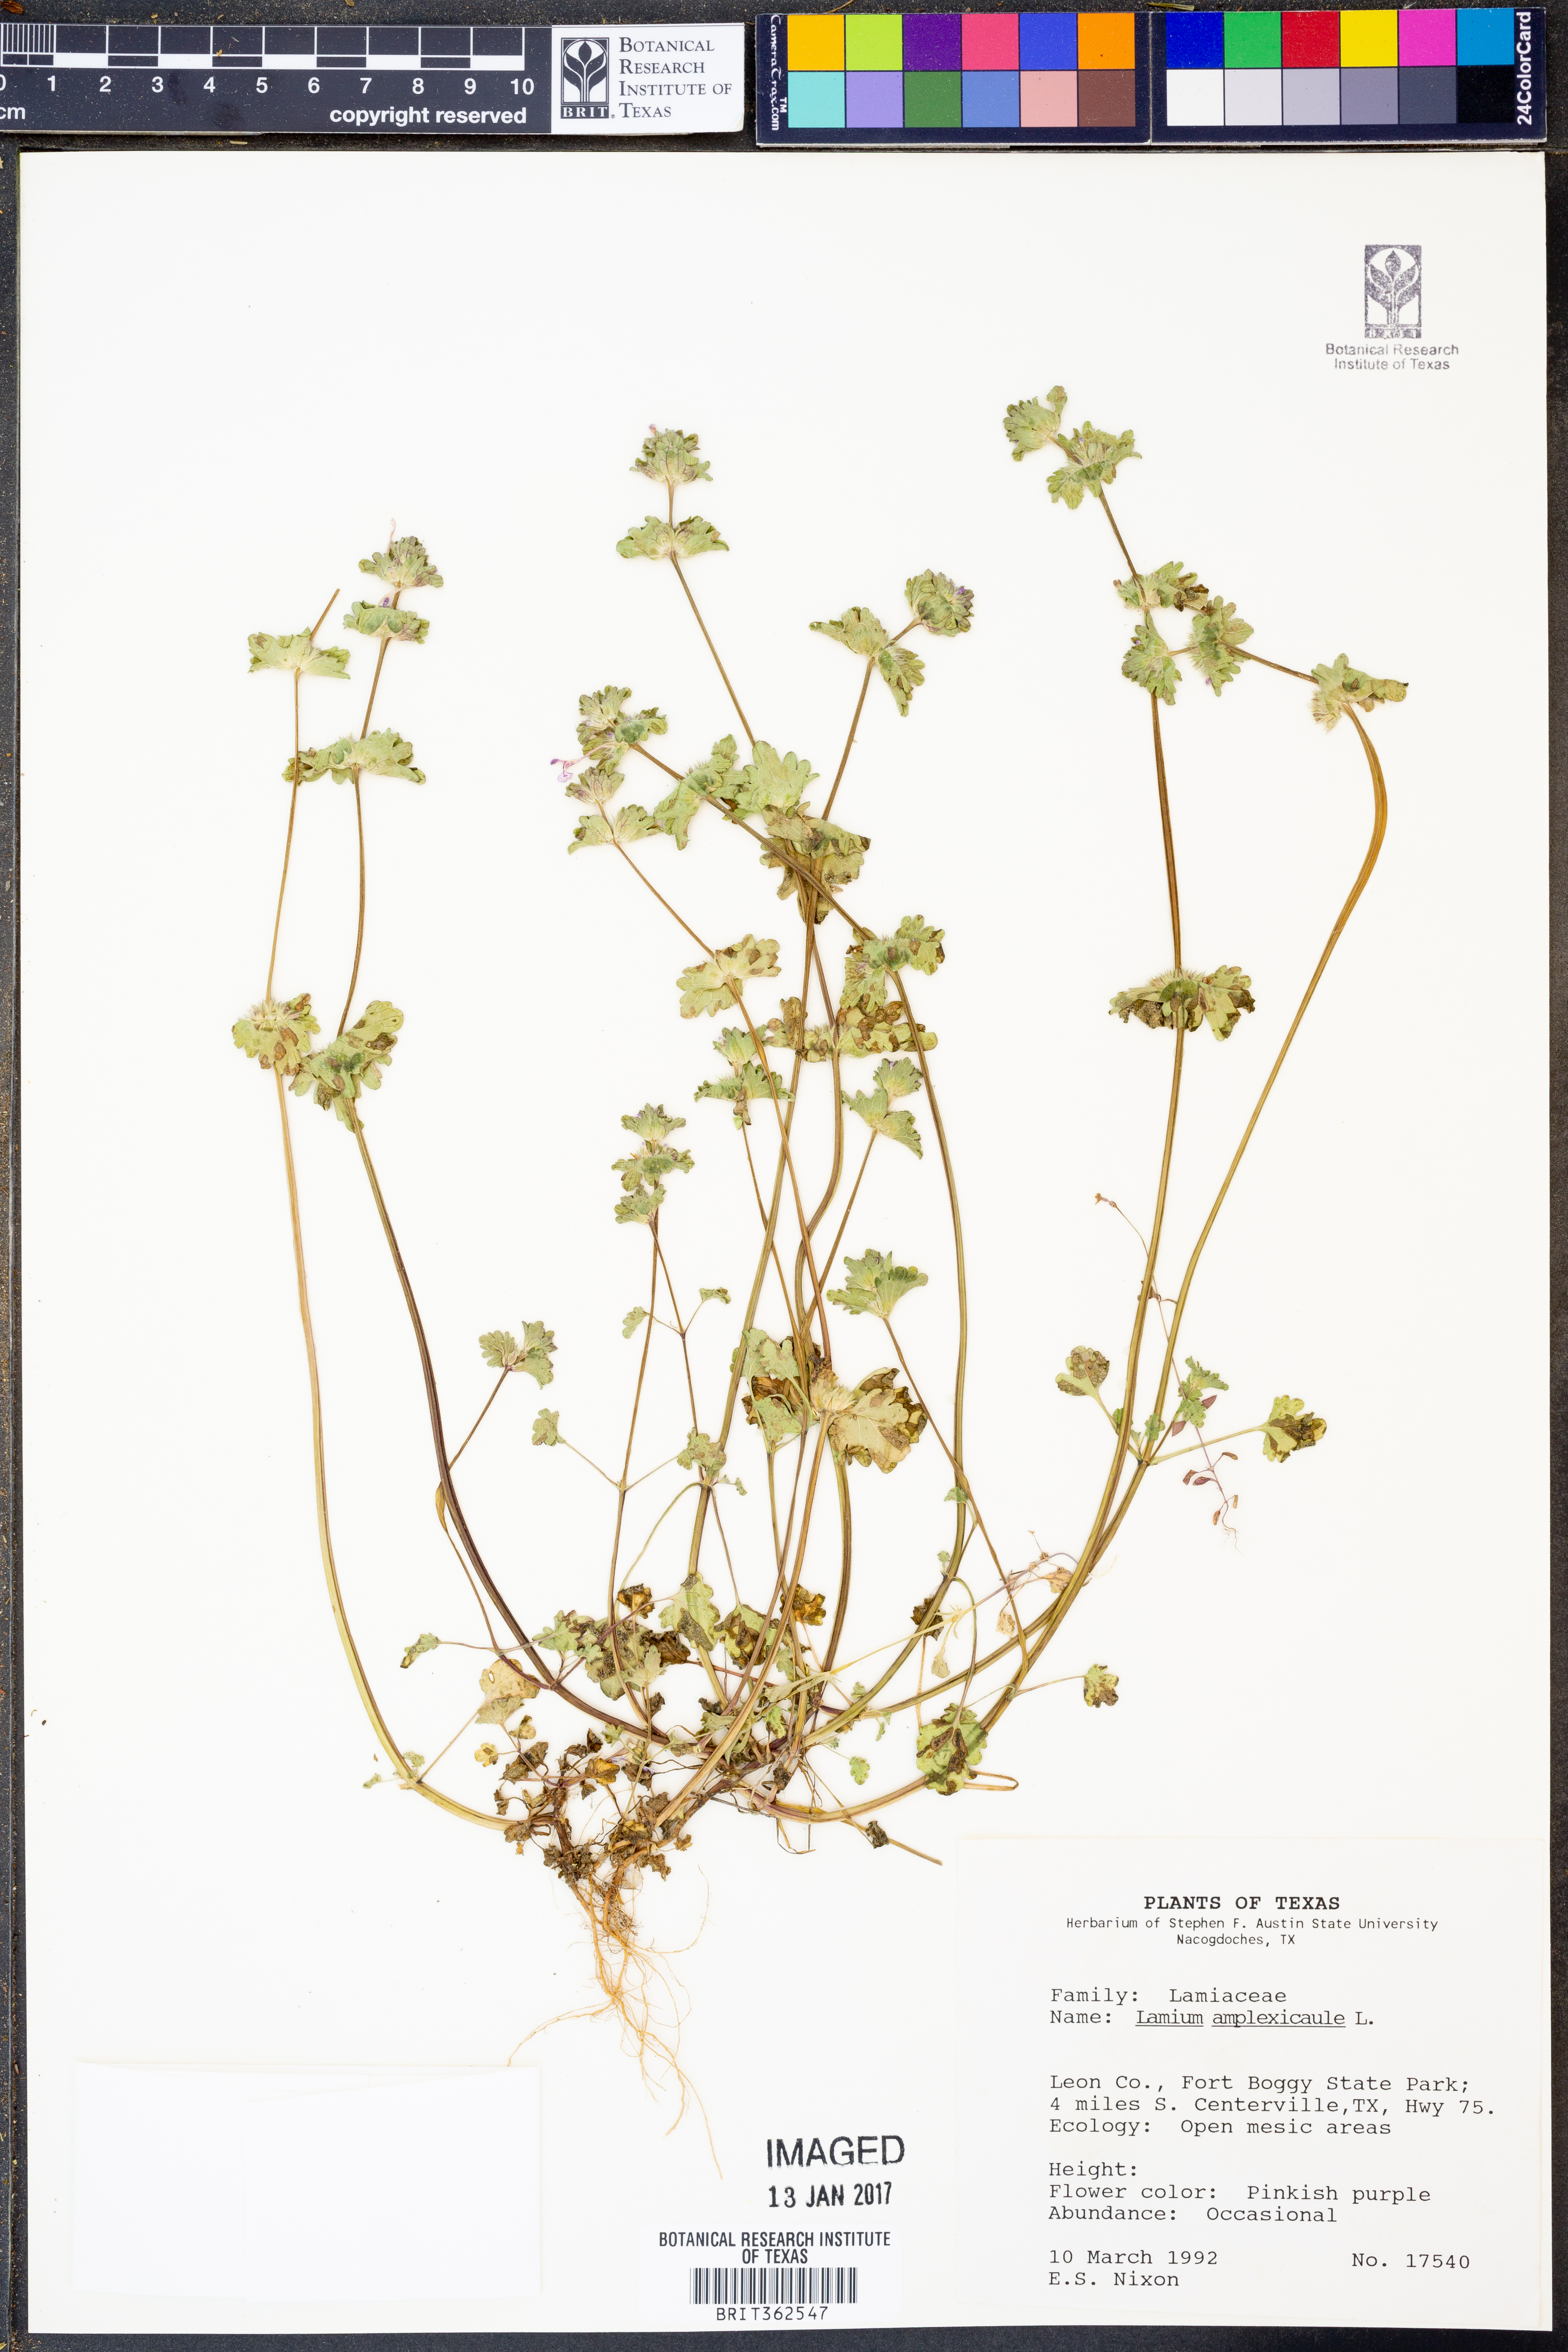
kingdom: Plantae
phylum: Tracheophyta
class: Magnoliopsida
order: Lamiales
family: Lamiaceae
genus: Lamium
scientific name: Lamium amplexicaule
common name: Henbit dead-nettle
